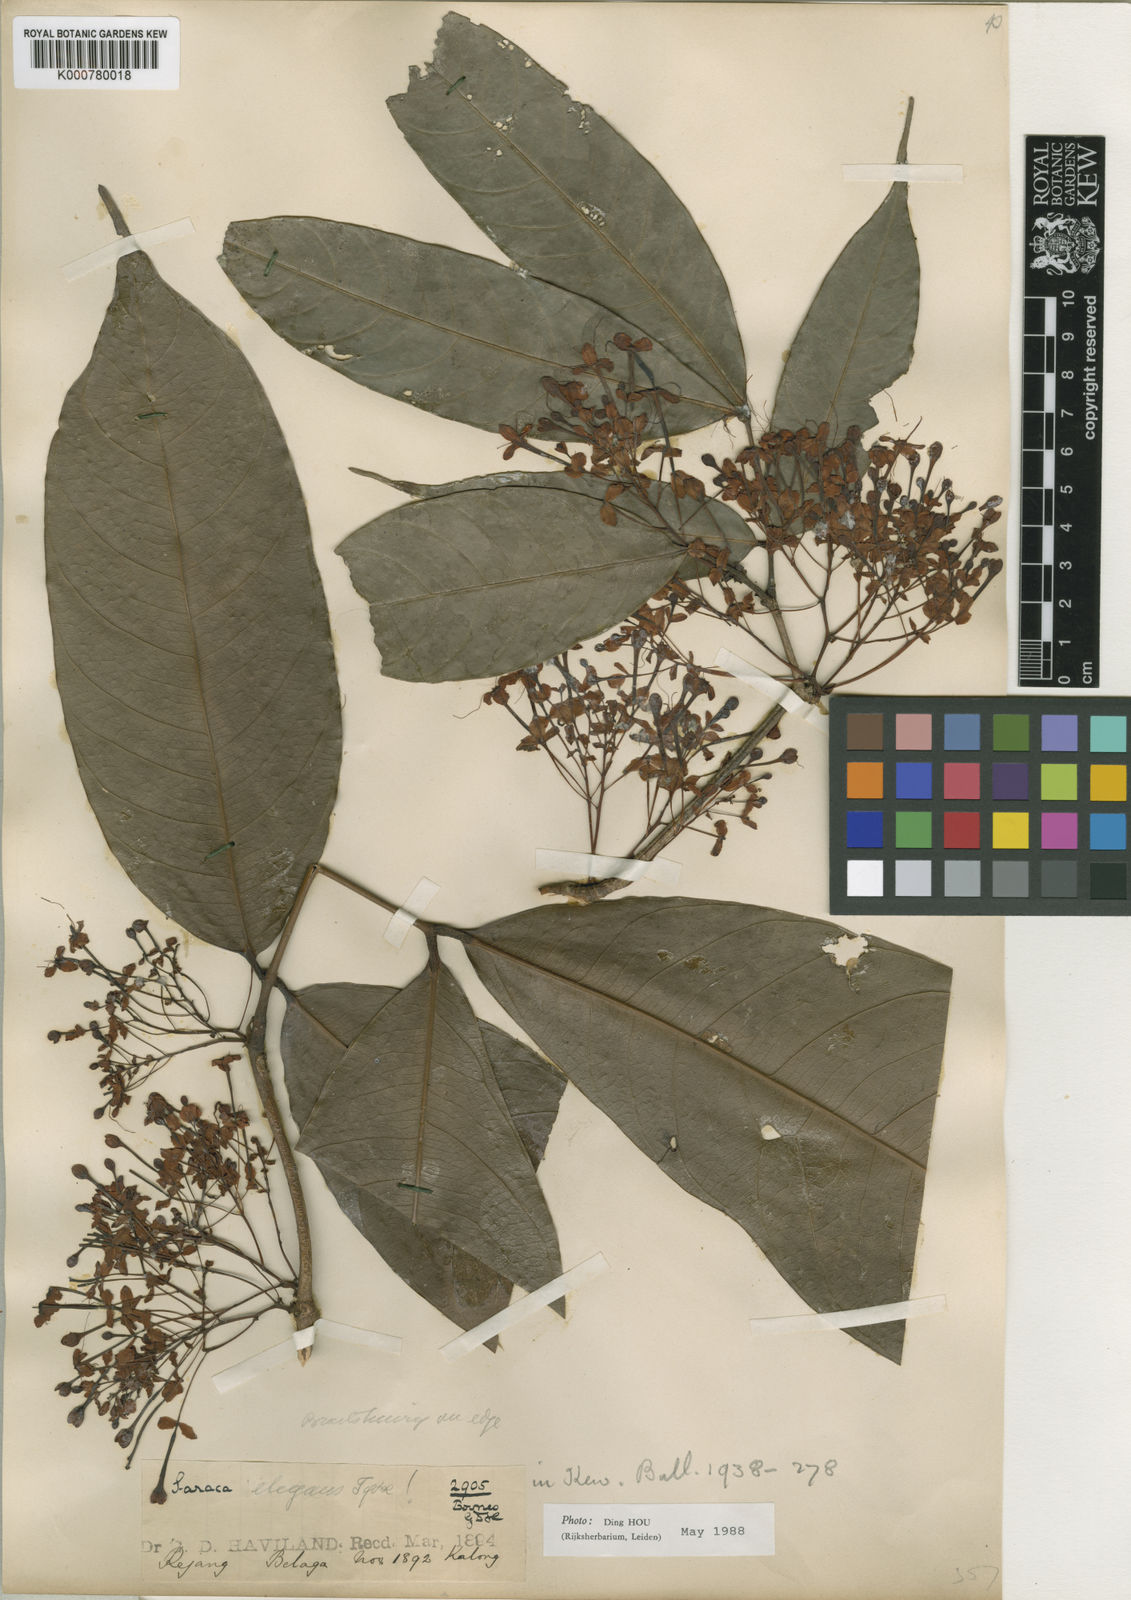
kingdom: Plantae
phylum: Tracheophyta
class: Magnoliopsida
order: Fabales
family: Fabaceae
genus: Saraca
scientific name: Saraca declinata
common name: Red saraca
